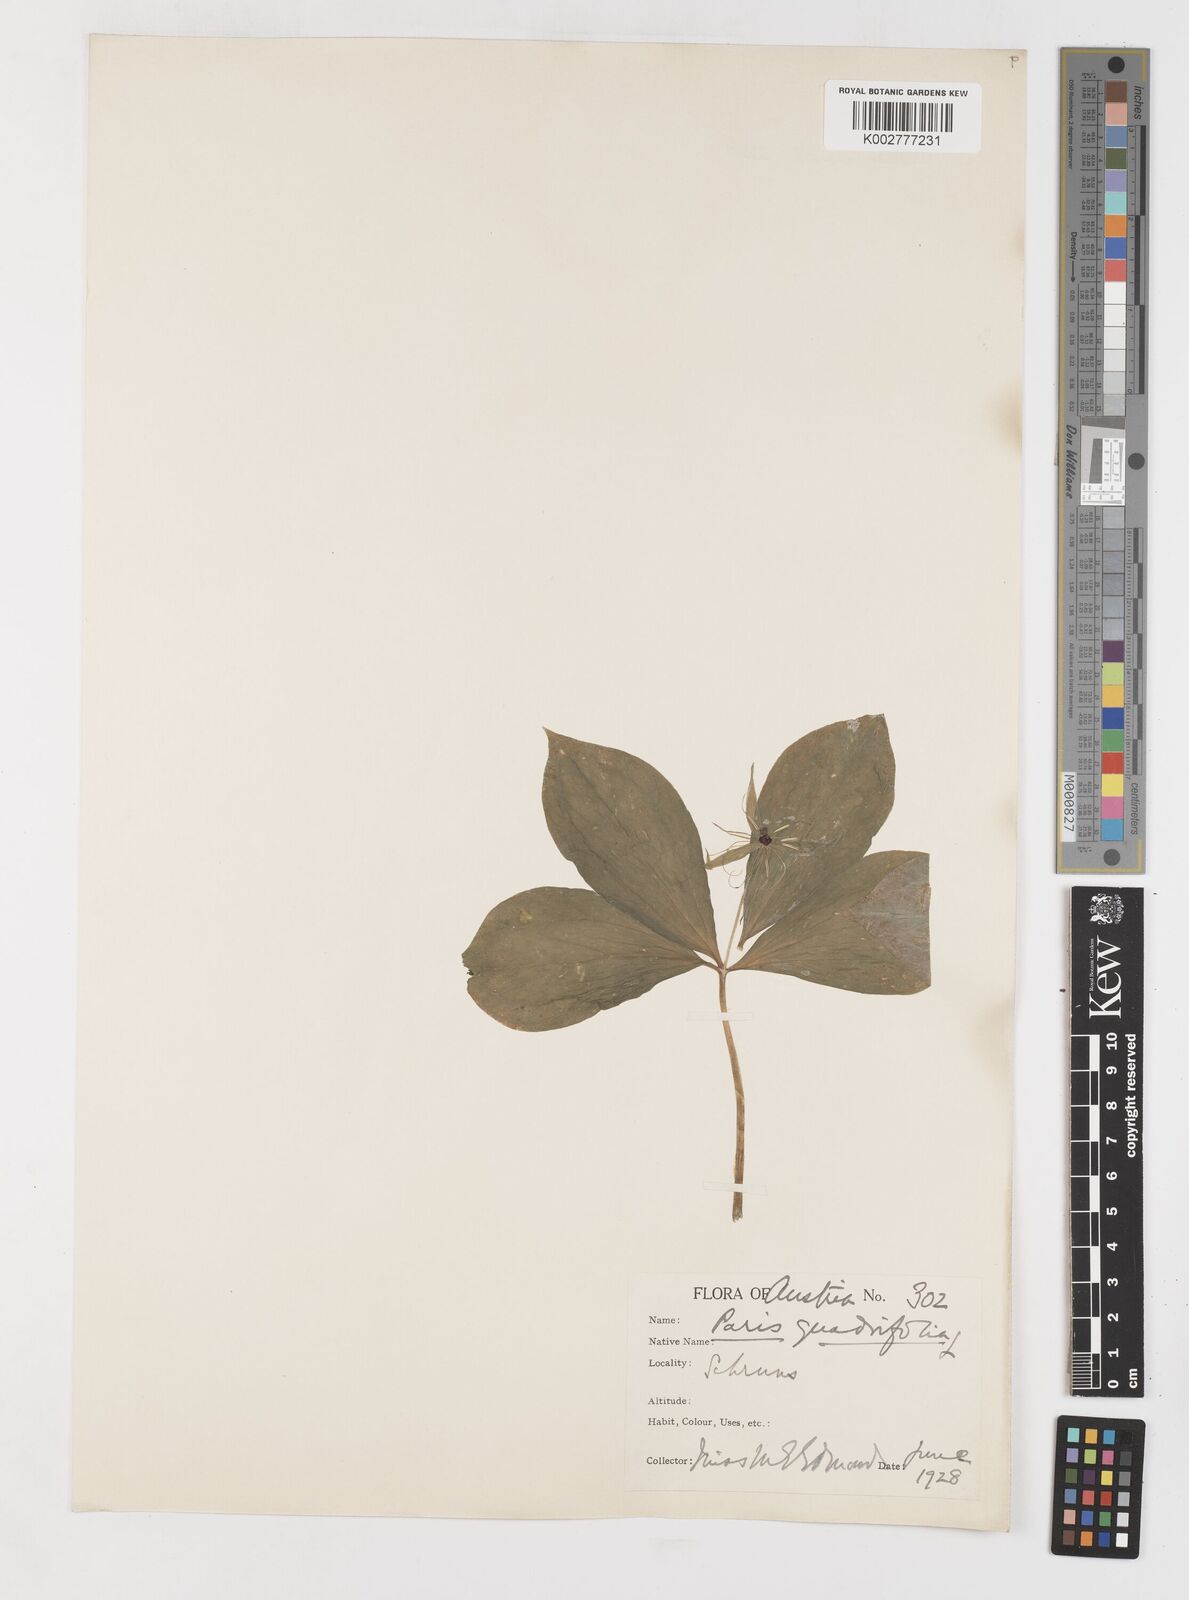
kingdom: Plantae
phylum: Tracheophyta
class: Liliopsida
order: Liliales
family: Melanthiaceae
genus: Paris
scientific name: Paris quadrifolia
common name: Herb-paris
